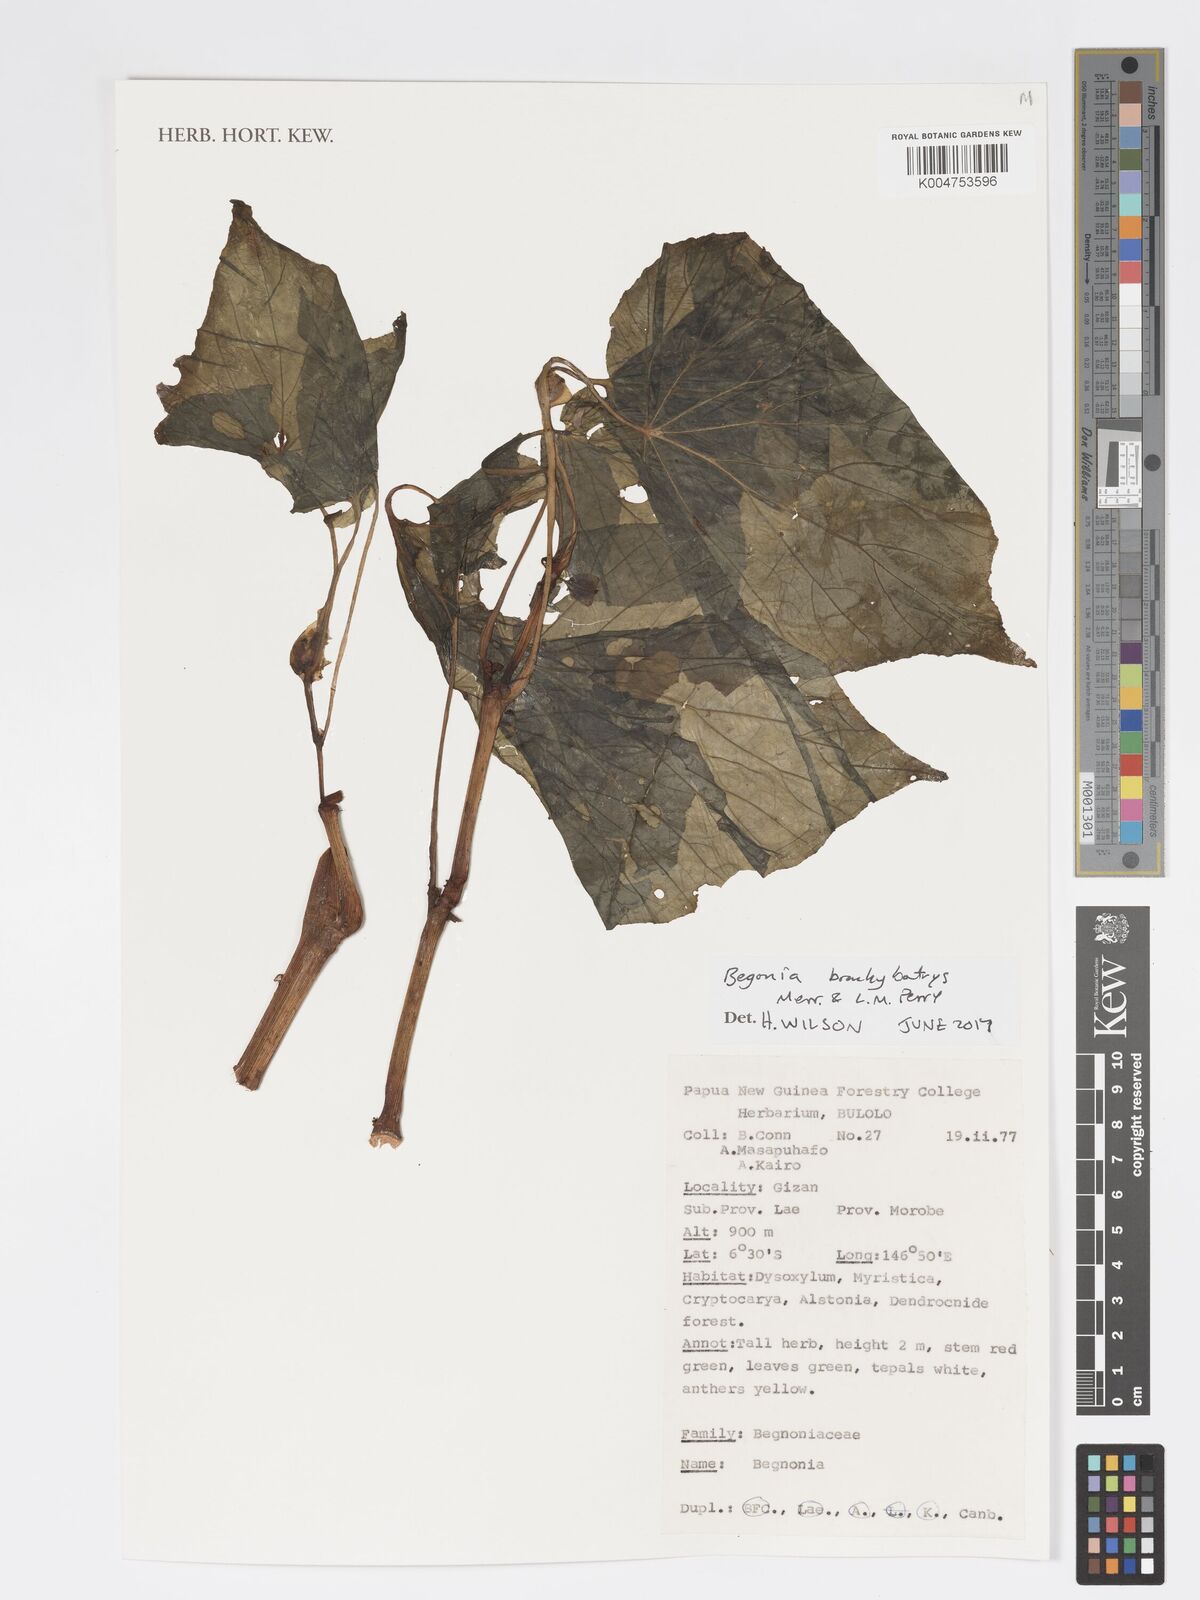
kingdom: Plantae
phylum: Tracheophyta
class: Magnoliopsida
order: Cucurbitales
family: Begoniaceae
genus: Begonia
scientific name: Begonia brachybotrys
